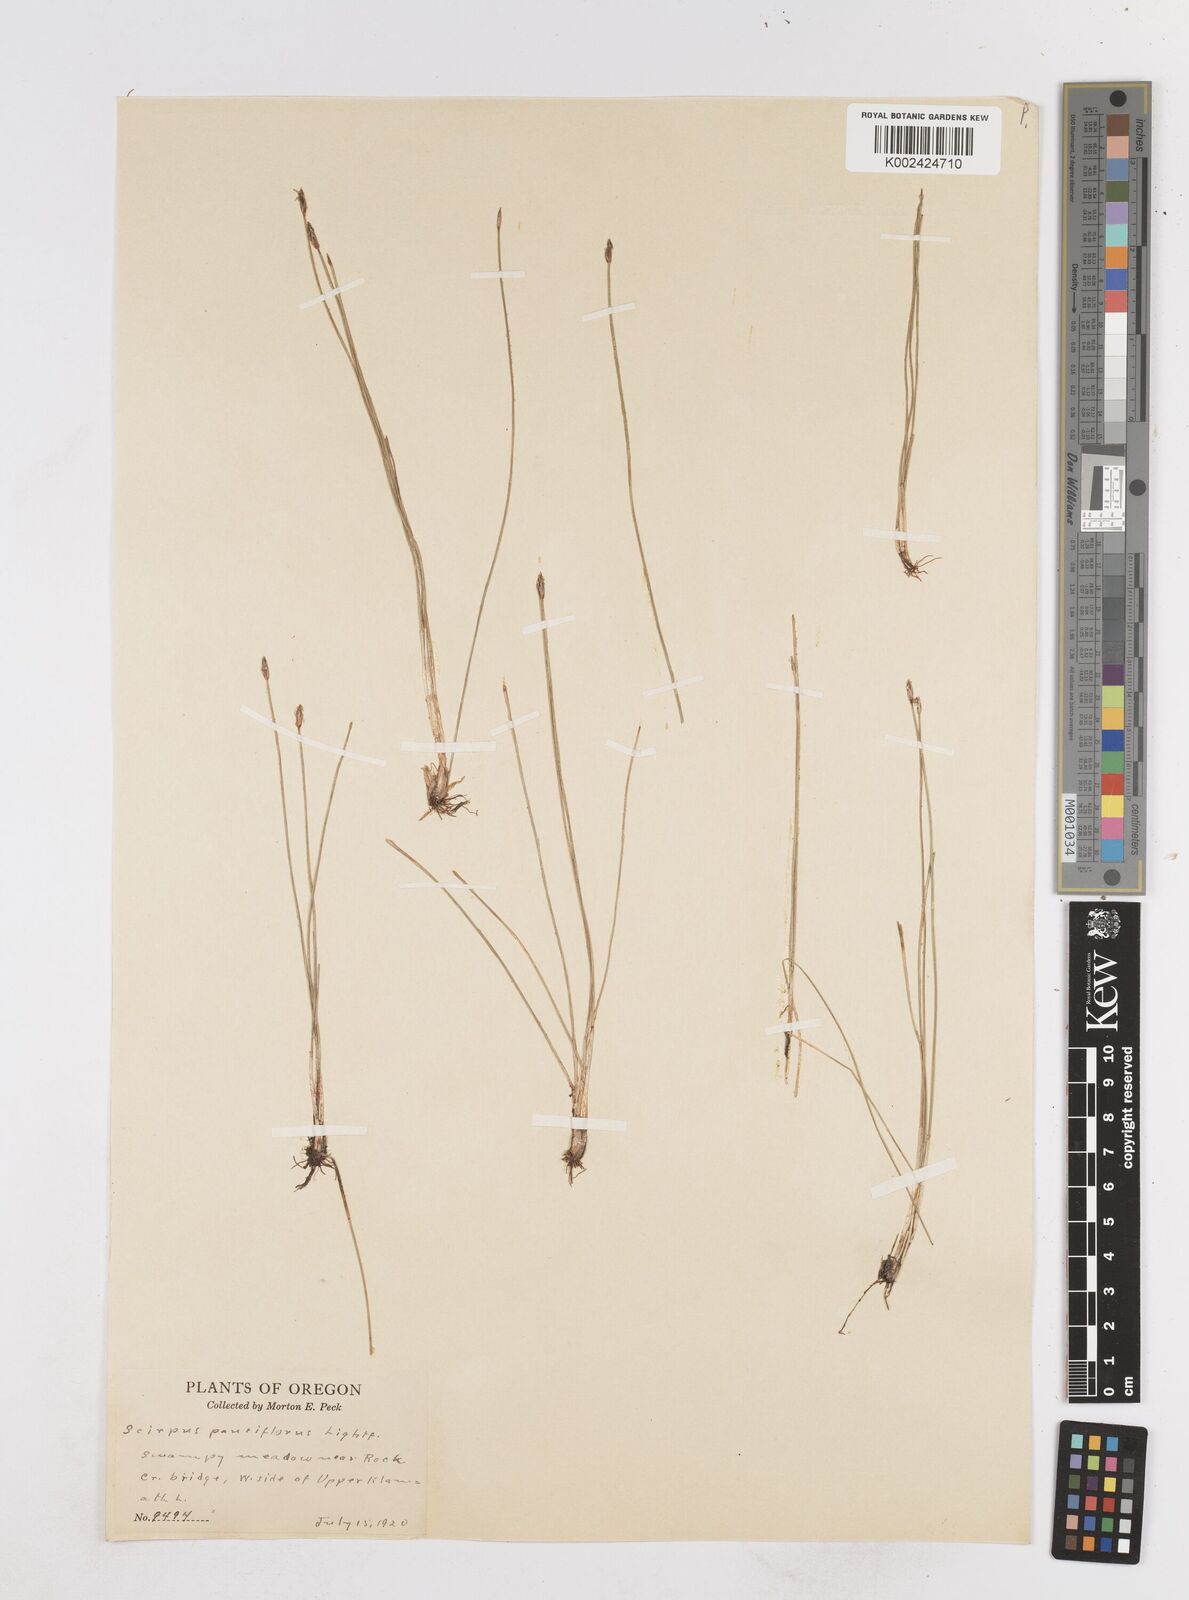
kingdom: Plantae
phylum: Tracheophyta
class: Liliopsida
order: Poales
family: Cyperaceae
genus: Eleocharis
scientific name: Eleocharis quinqueflora
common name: Few-flowered spike-rush
